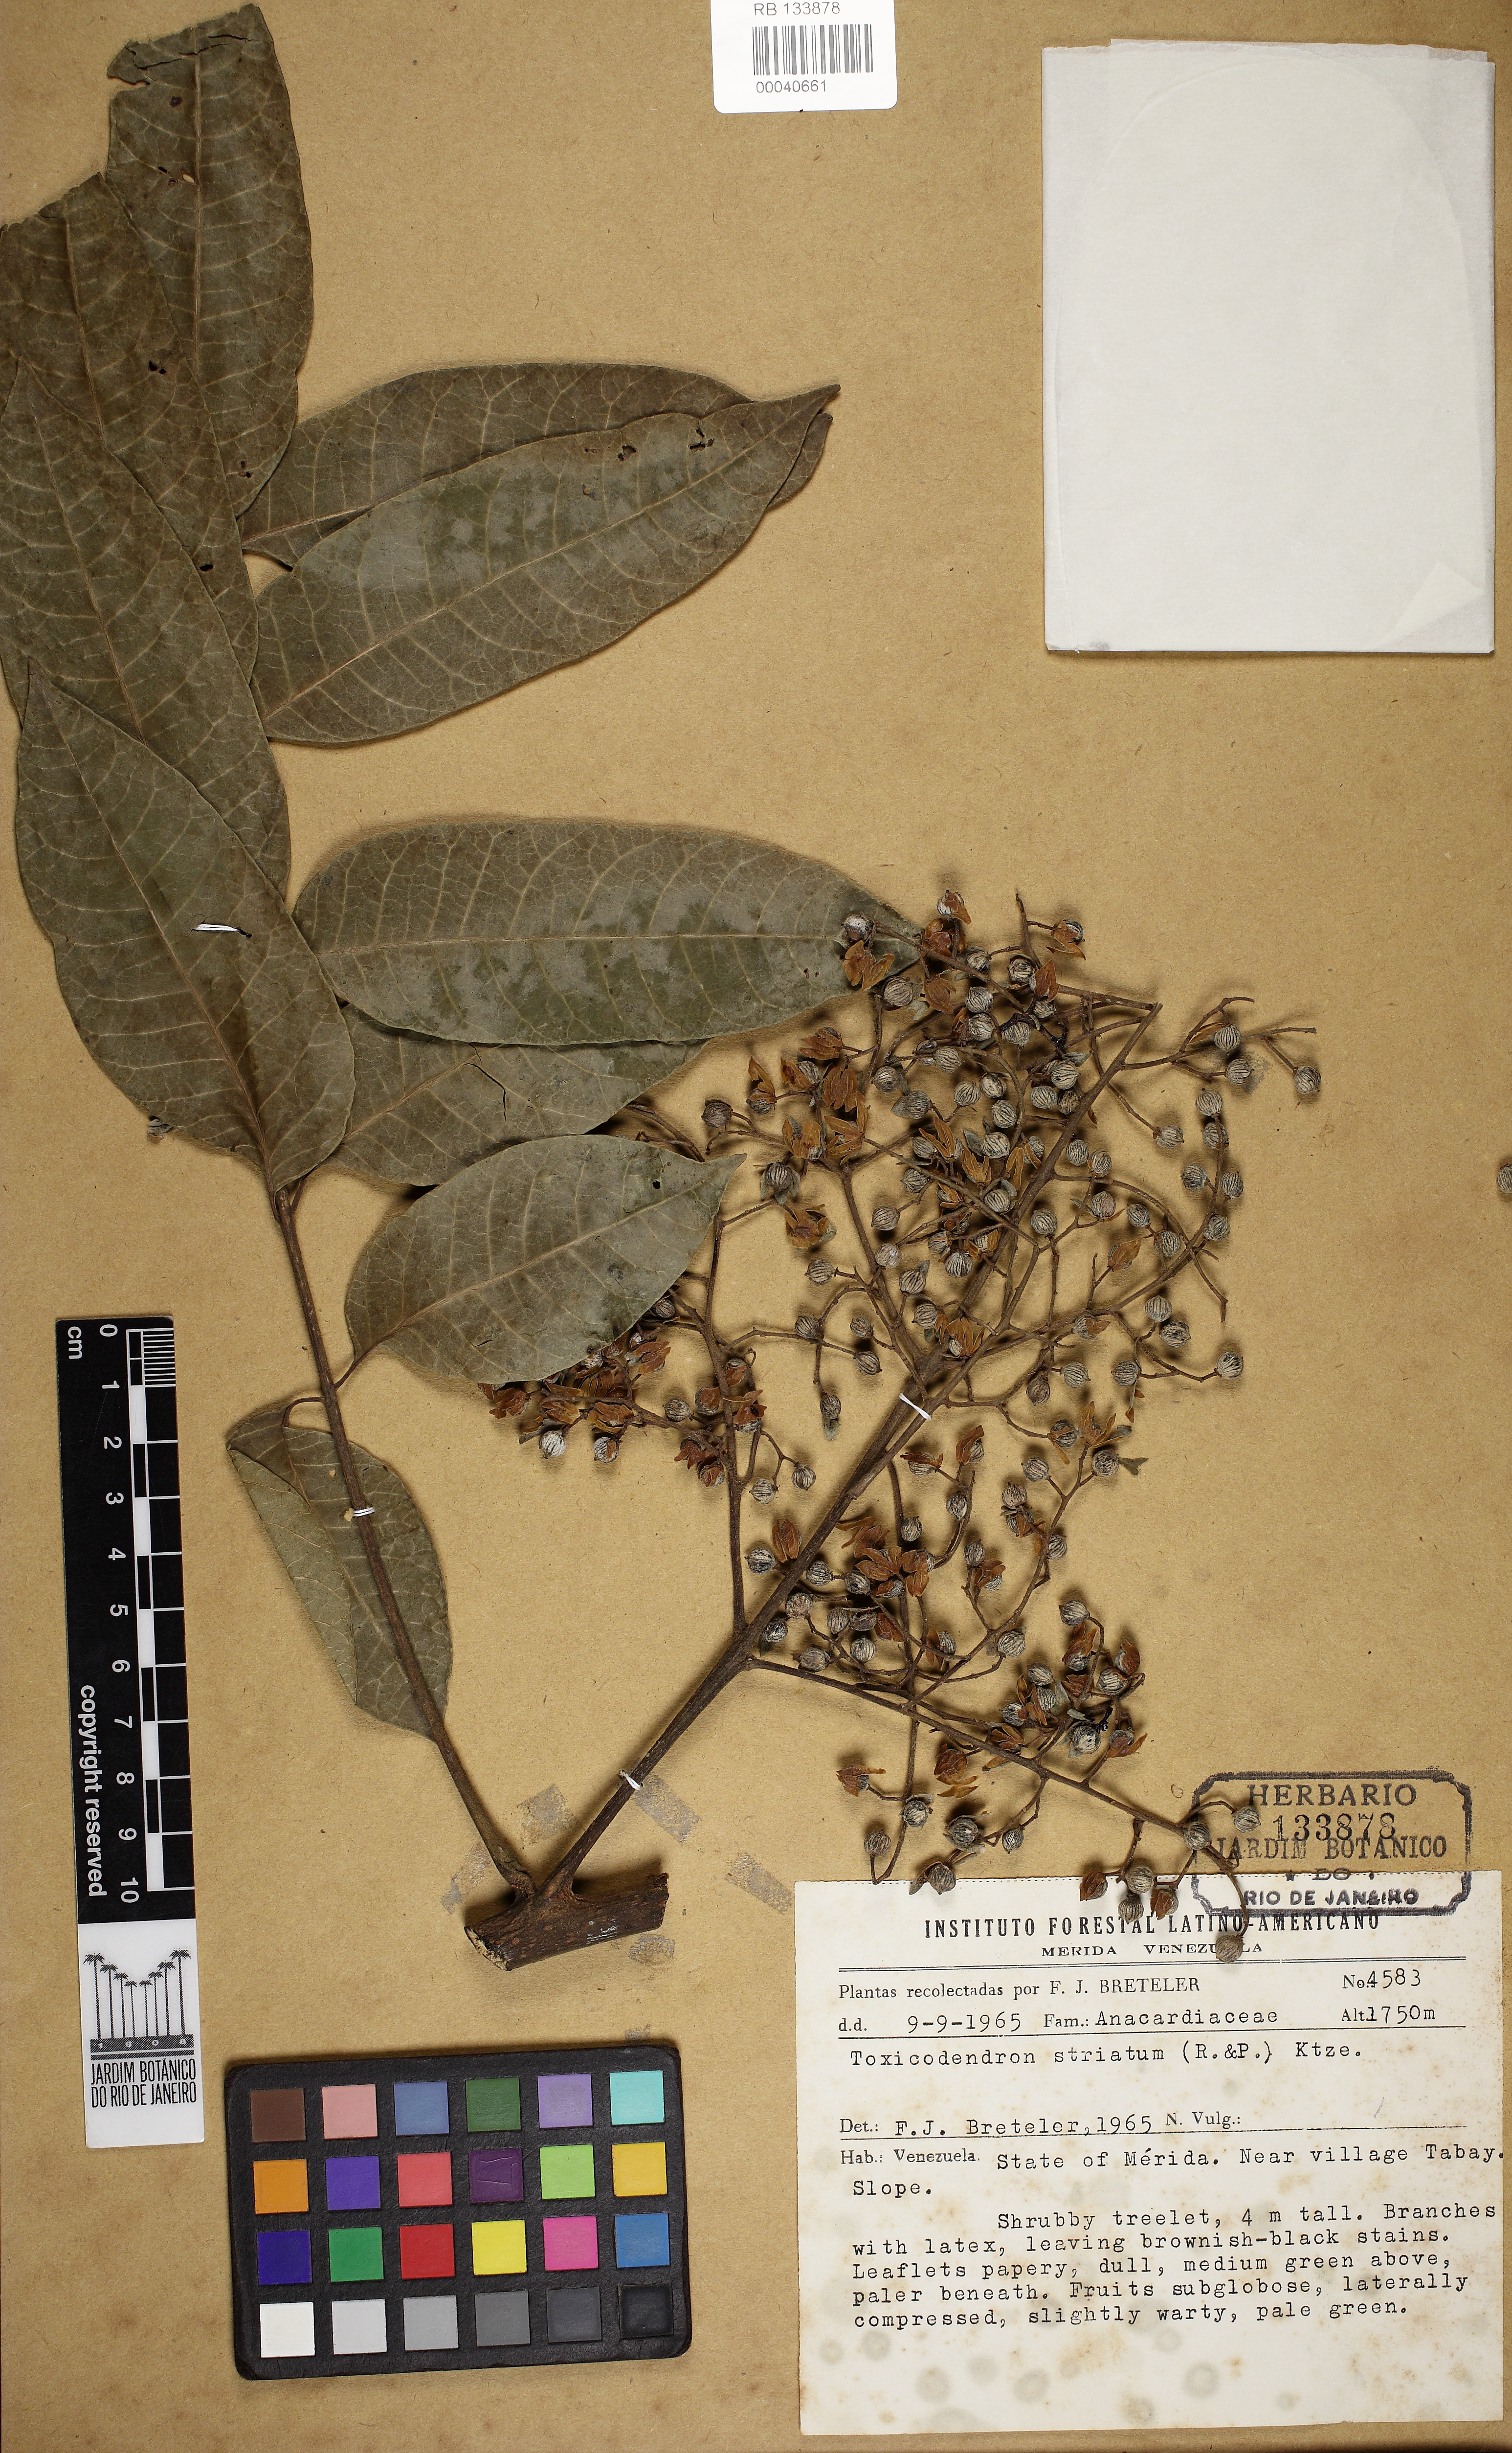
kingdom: Plantae
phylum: Tracheophyta
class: Magnoliopsida
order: Sapindales
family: Anacardiaceae
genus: Toxicodendron
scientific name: Toxicodendron striatum
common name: Sumac
